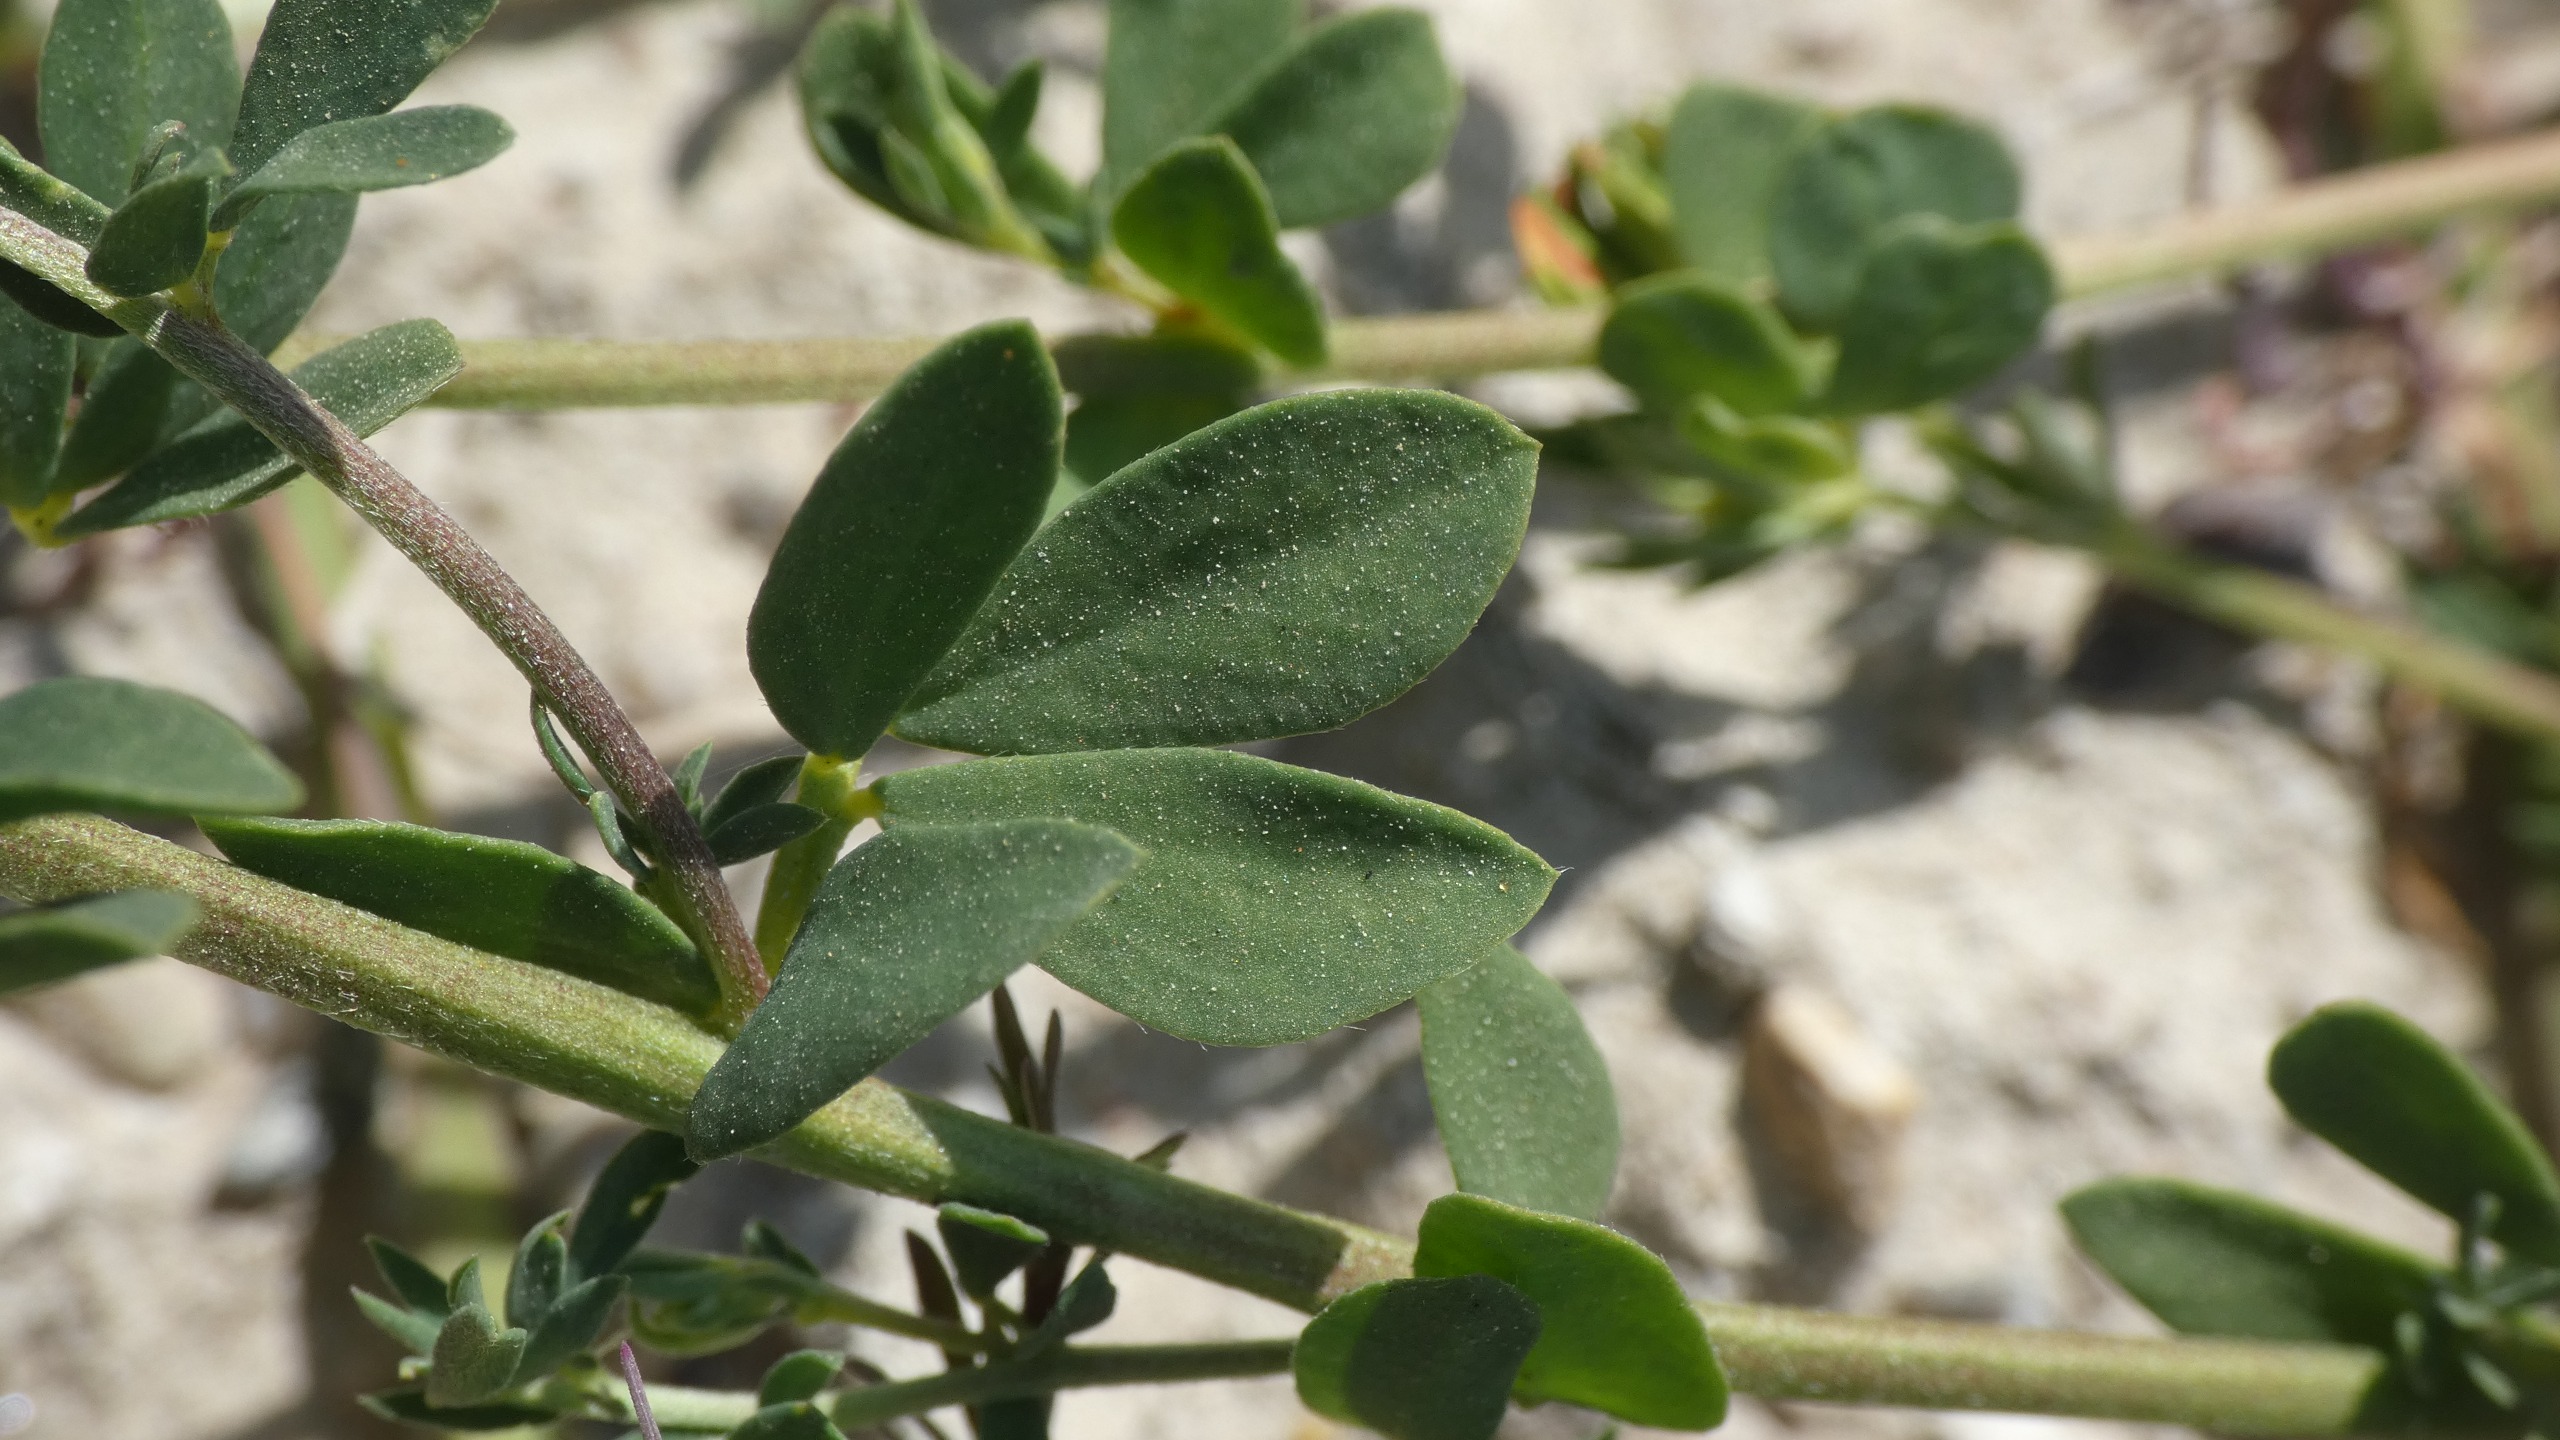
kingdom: Plantae
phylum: Tracheophyta
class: Magnoliopsida
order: Fabales
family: Fabaceae
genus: Lotus
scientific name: Lotus corniculatus
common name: Almindelig kællingetand
